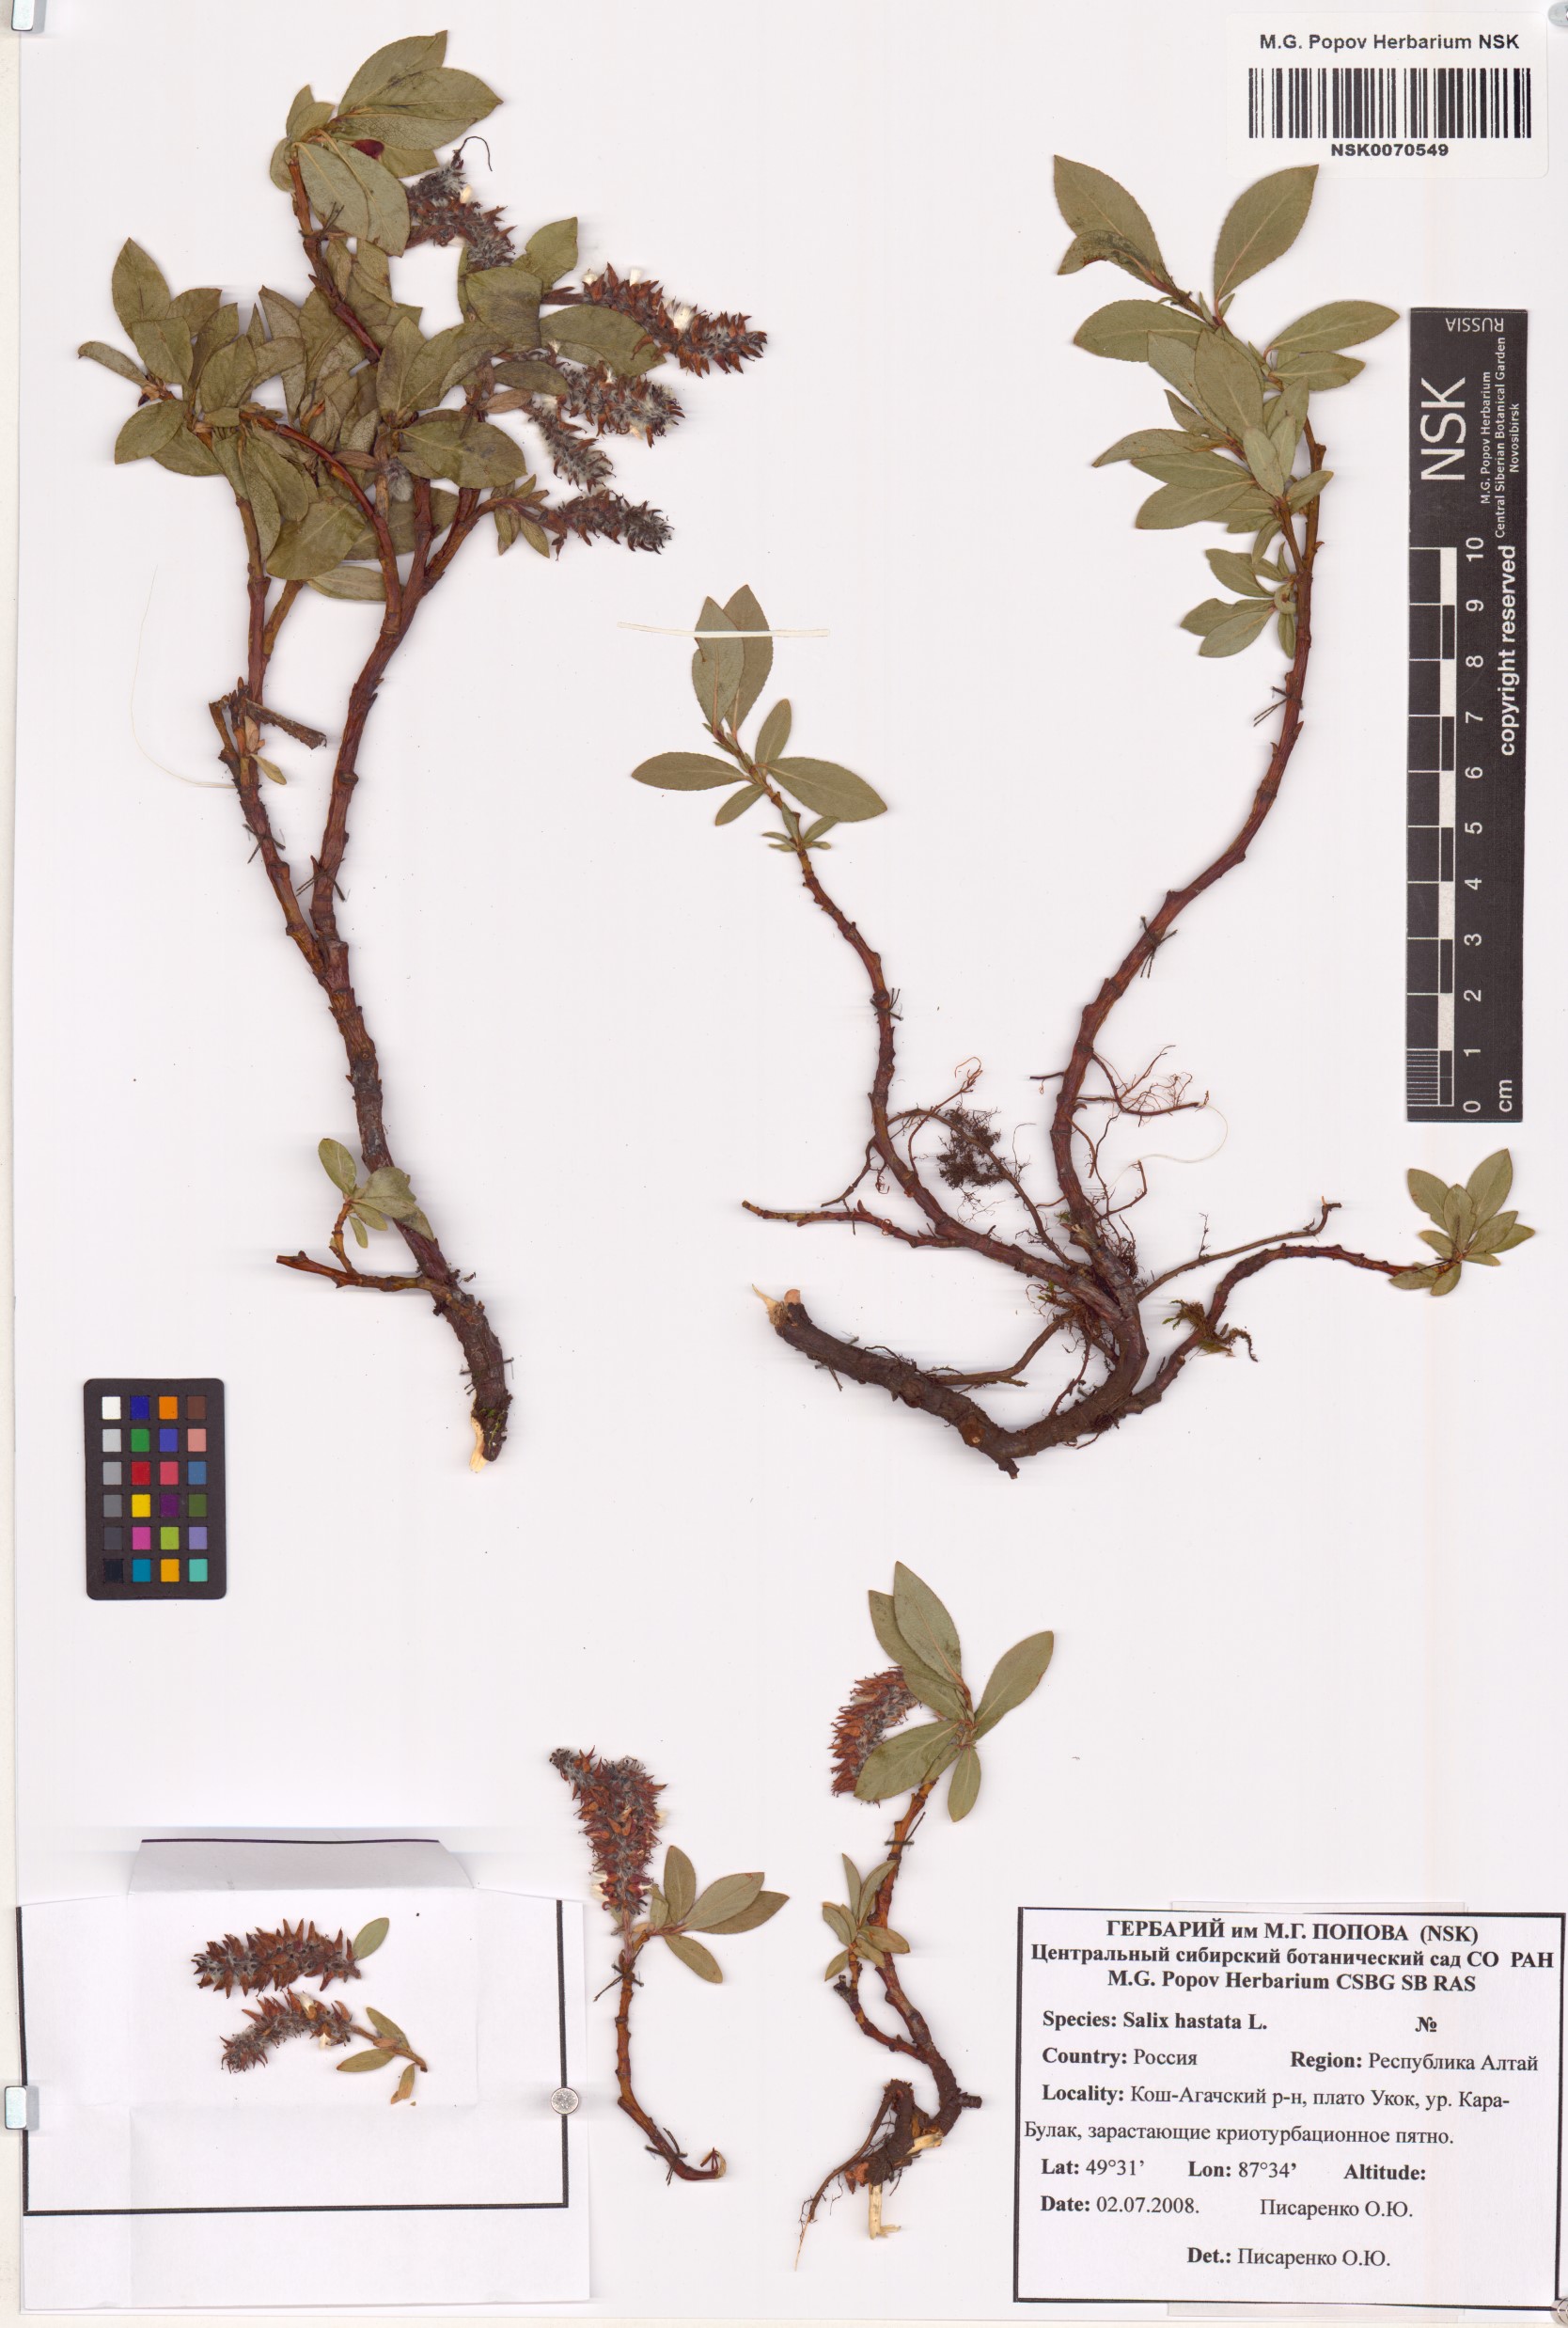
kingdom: Plantae
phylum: Tracheophyta
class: Magnoliopsida
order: Malpighiales
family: Salicaceae
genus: Salix
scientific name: Salix hastata
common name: Halberd willow
